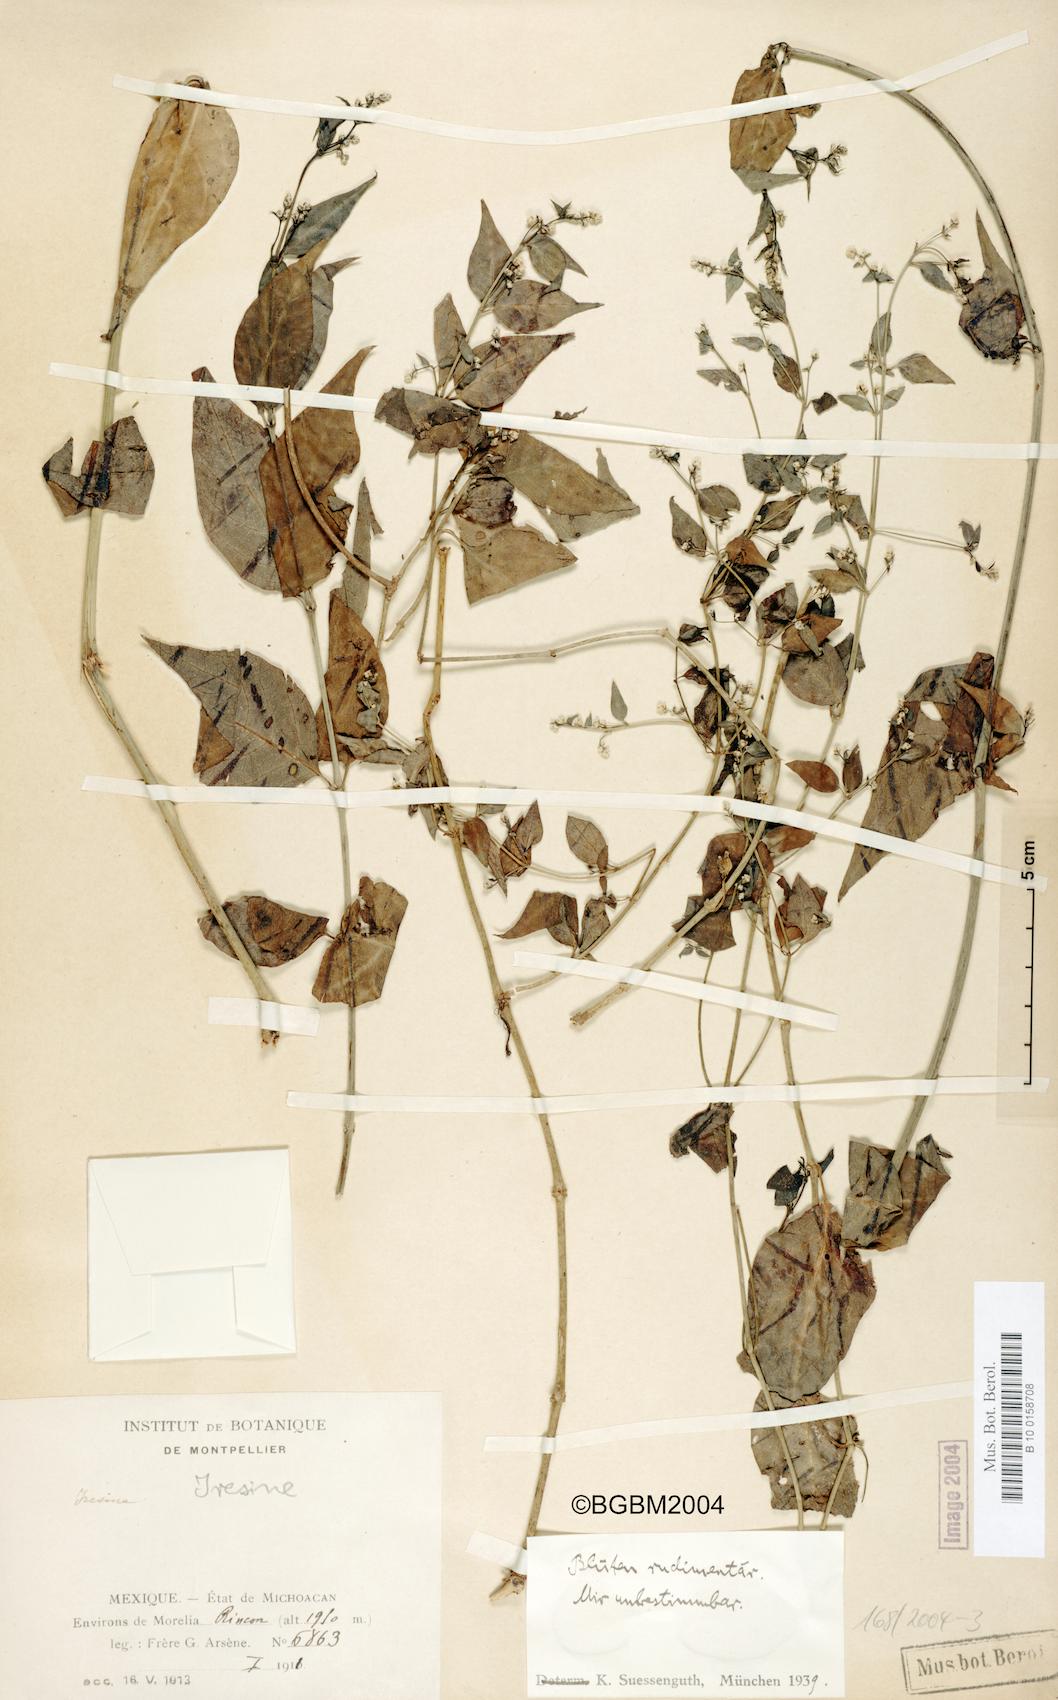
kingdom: Plantae
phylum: Tracheophyta
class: Magnoliopsida
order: Caryophyllales
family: Amaranthaceae
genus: Iresine
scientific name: Iresine
